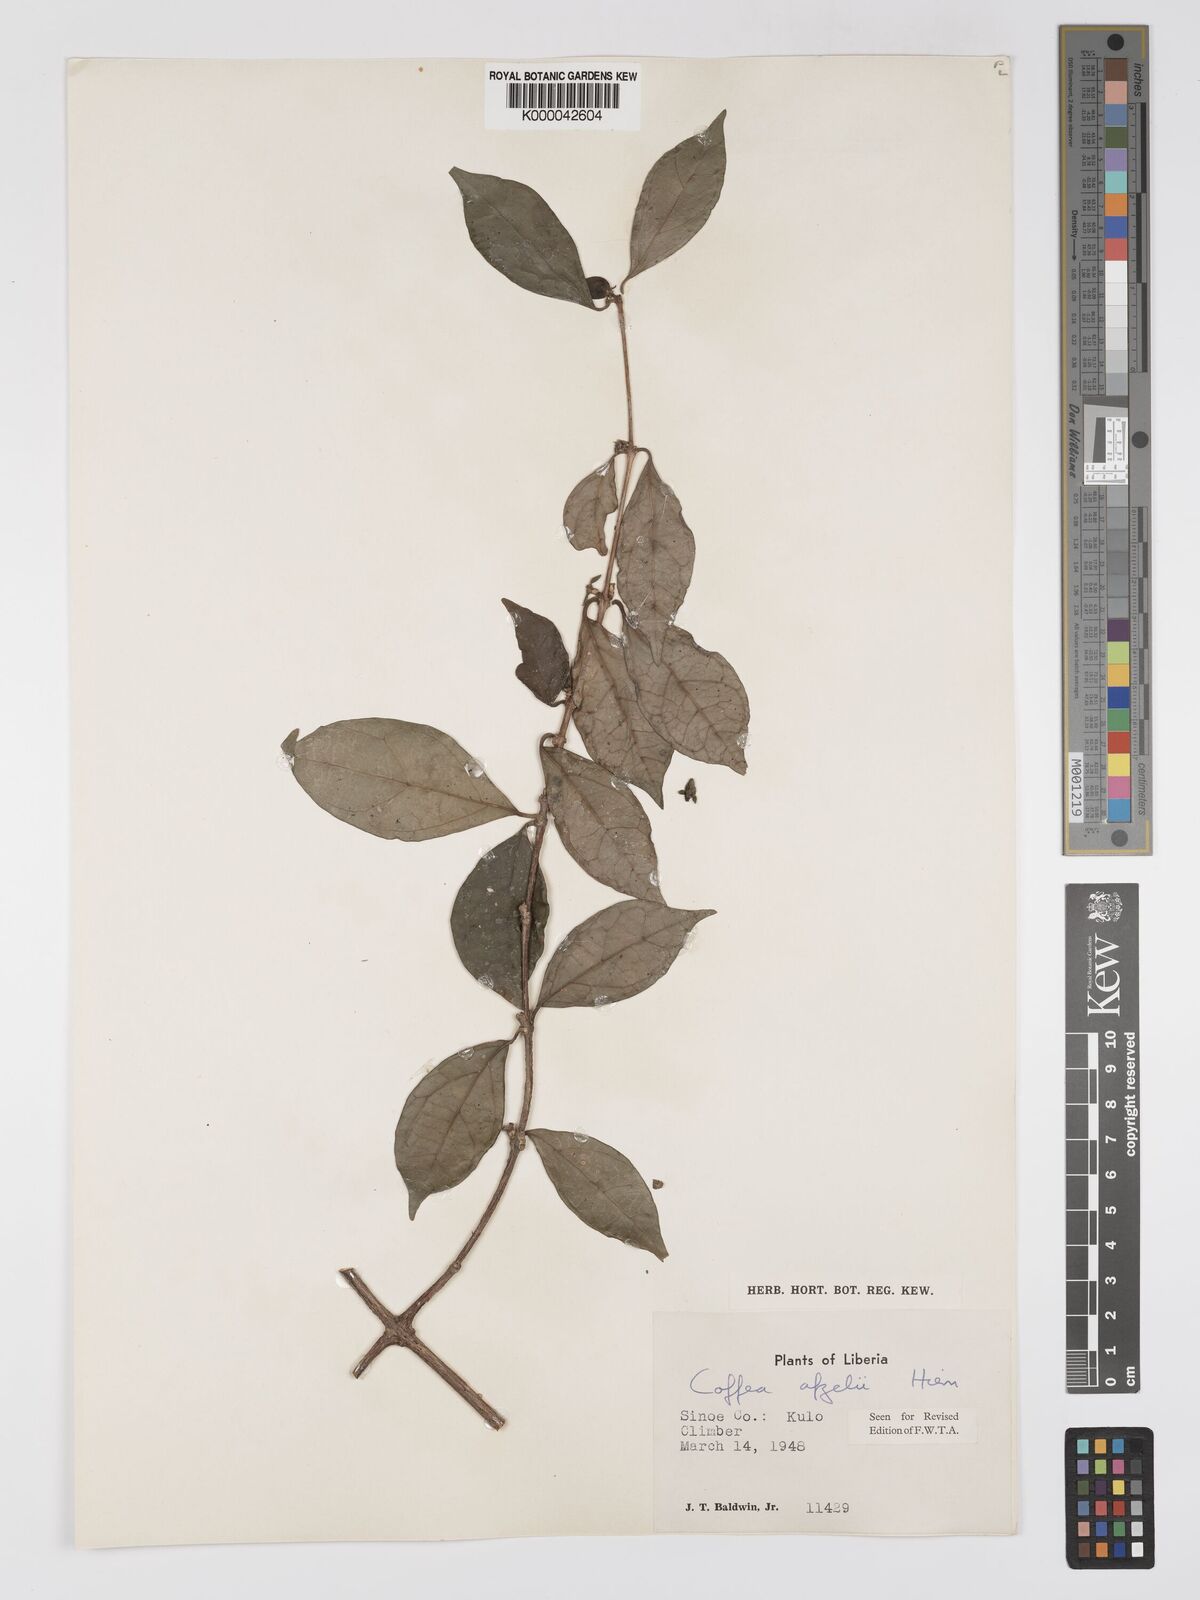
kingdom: Plantae
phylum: Tracheophyta
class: Magnoliopsida
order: Gentianales
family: Rubiaceae
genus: Argocoffeopsis
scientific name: Argocoffeopsis afzelii
